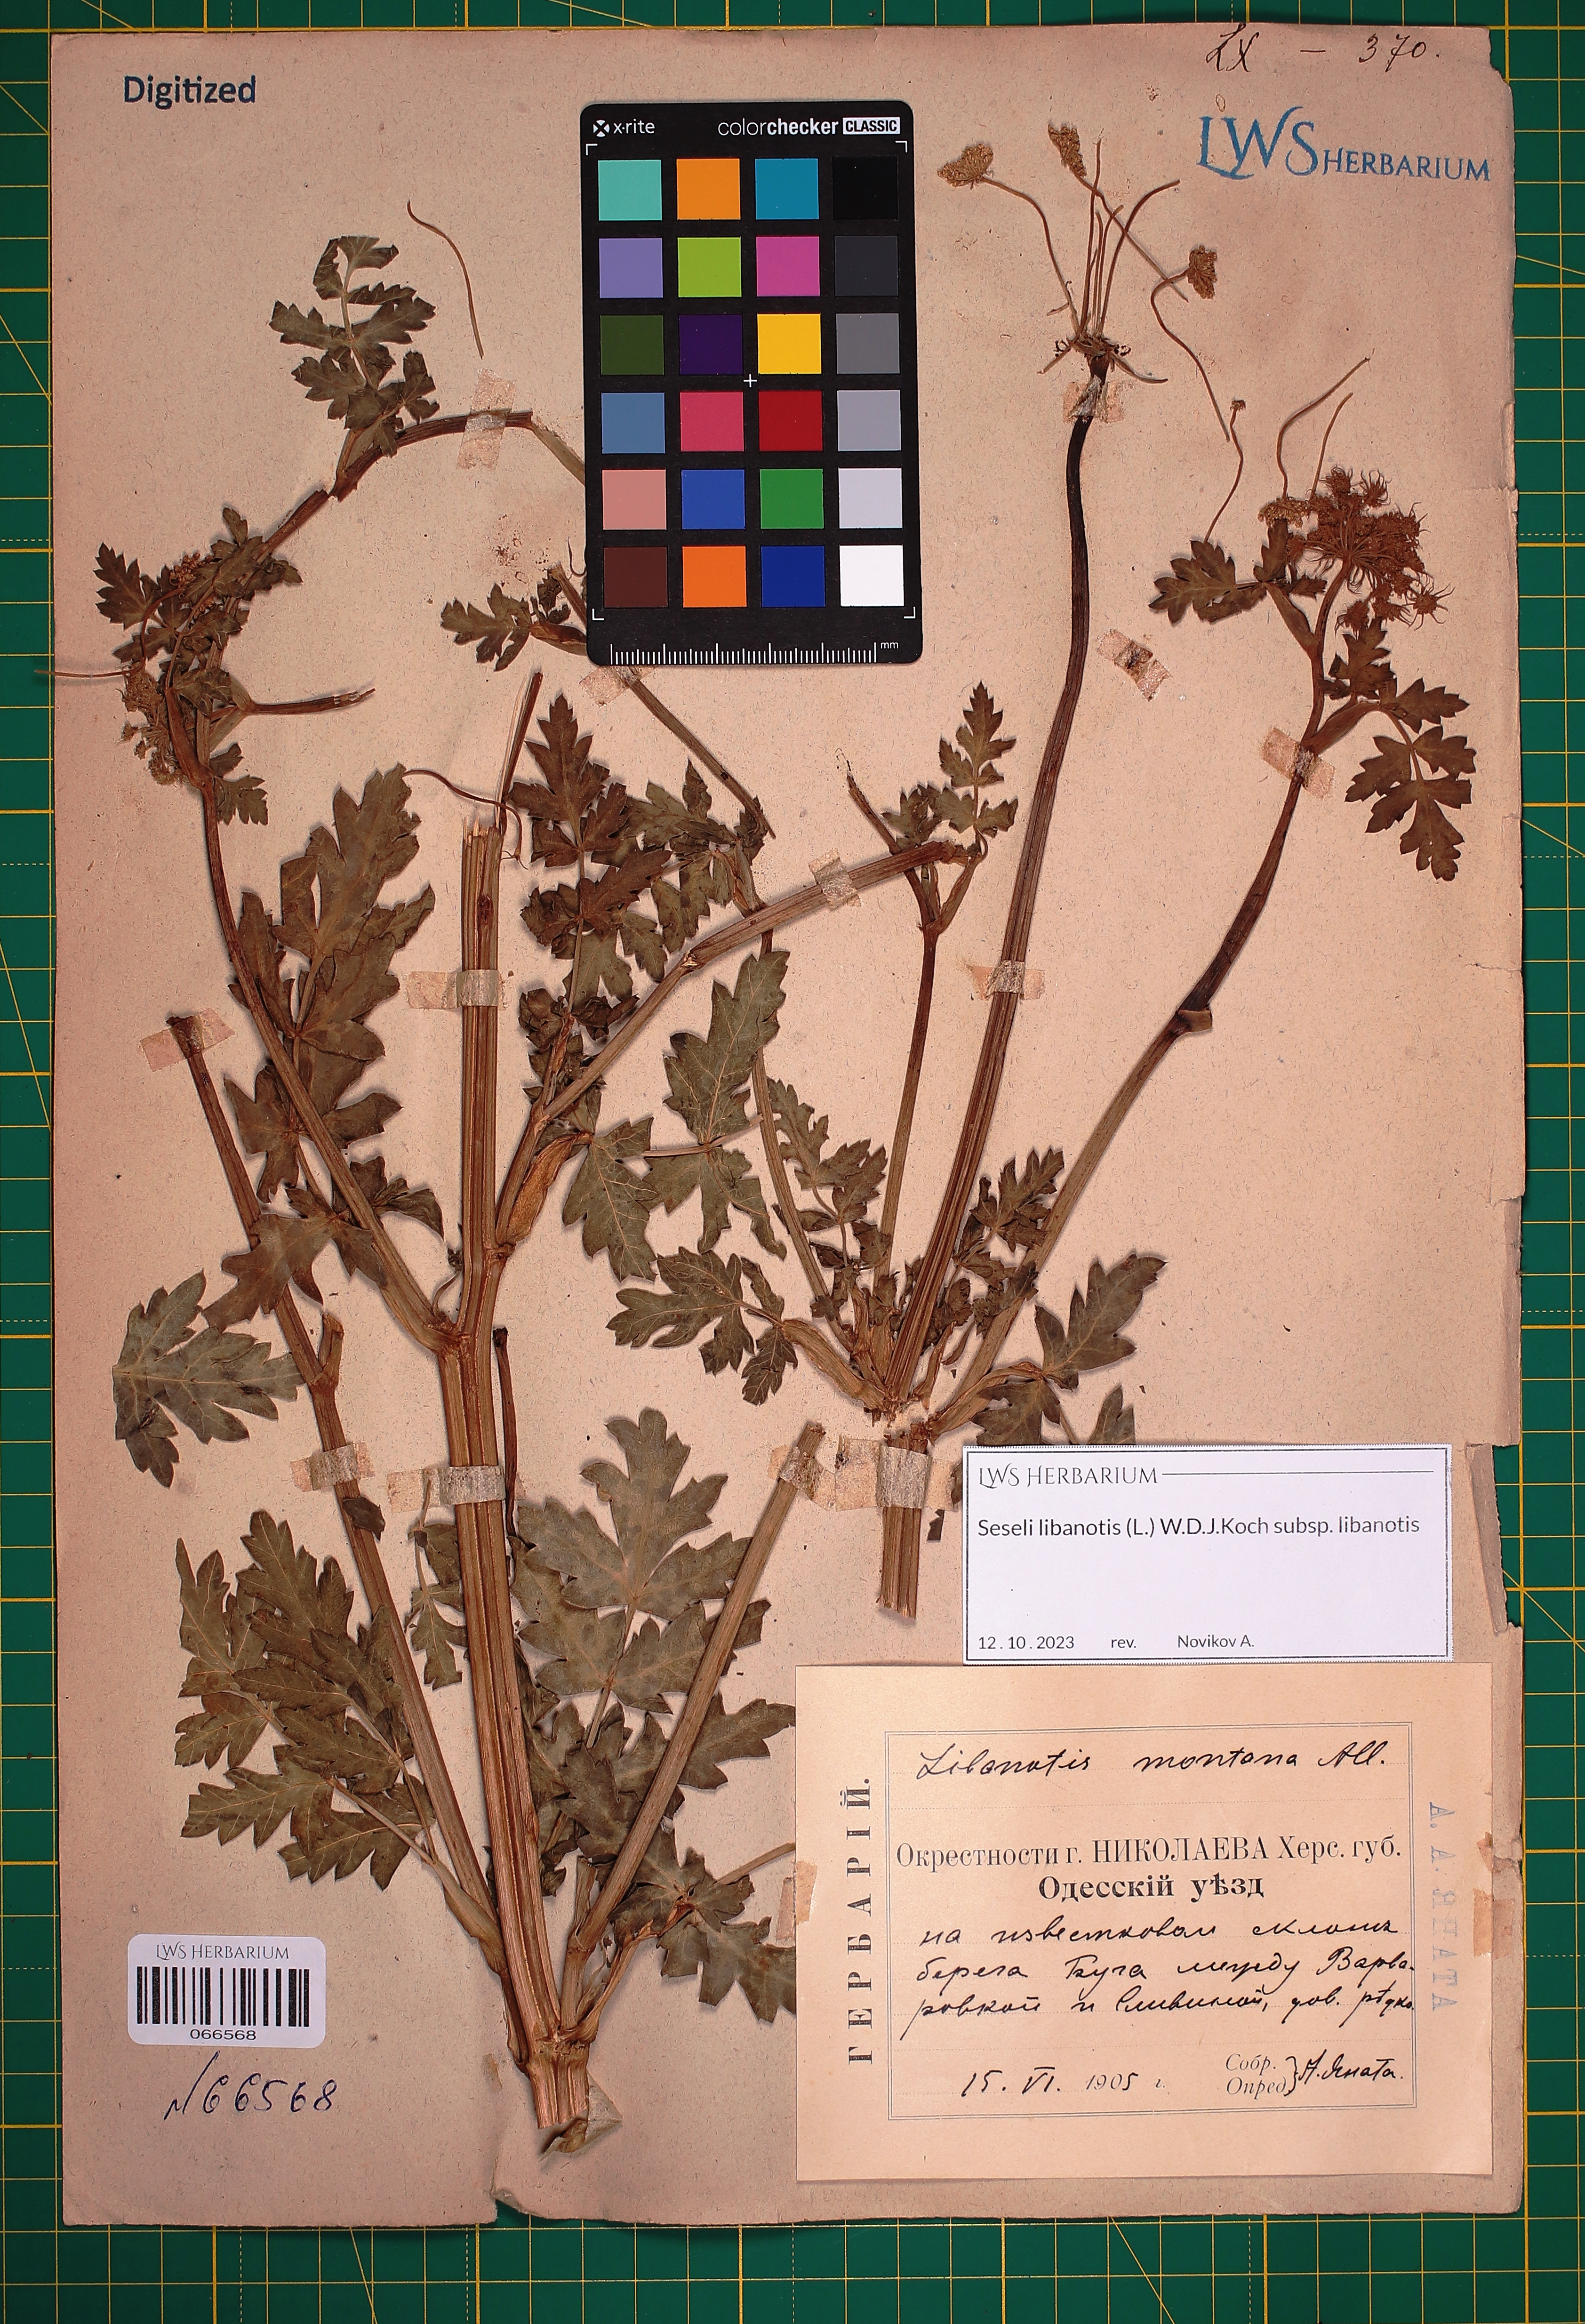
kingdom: Plantae
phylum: Tracheophyta
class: Magnoliopsida
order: Apiales
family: Apiaceae
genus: Seseli
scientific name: Seseli libanotis
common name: Mooncarrot
